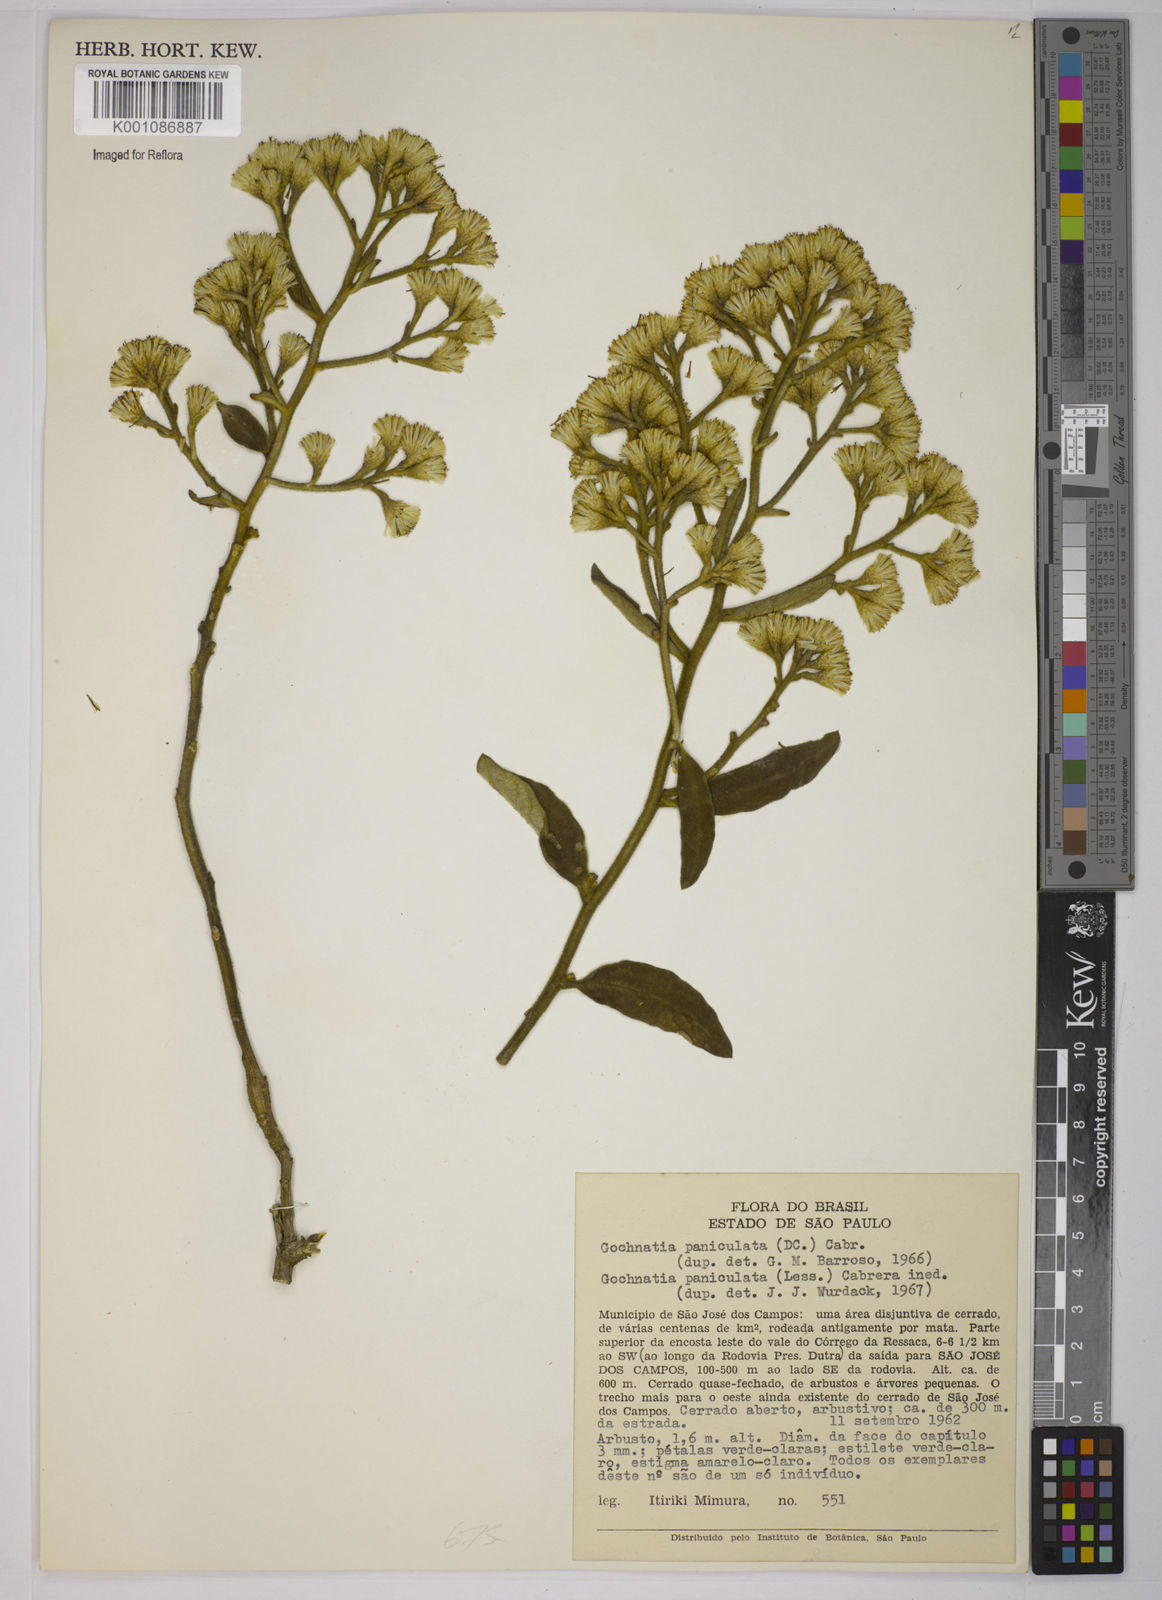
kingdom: Plantae
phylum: Tracheophyta
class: Magnoliopsida
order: Asterales
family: Asteraceae
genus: Moquiniastrum
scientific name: Moquiniastrum paniculatum
